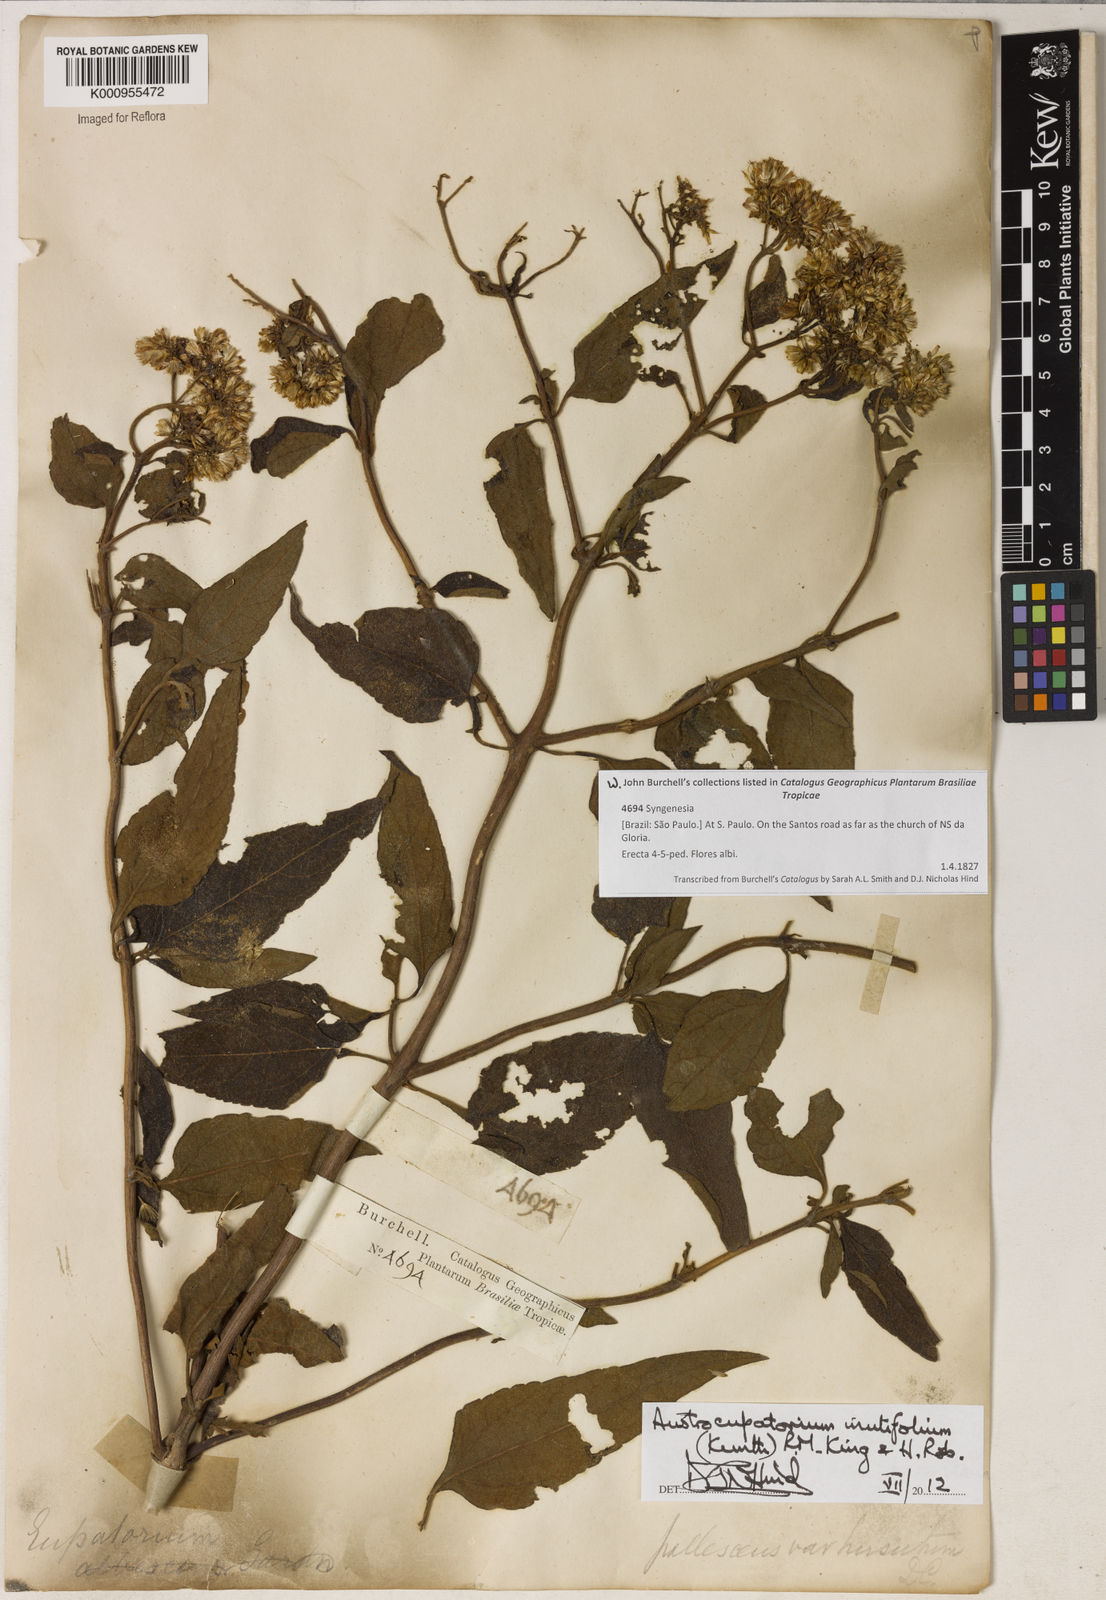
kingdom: Plantae
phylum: Tracheophyta
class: Magnoliopsida
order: Asterales
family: Asteraceae
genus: Austroeupatorium
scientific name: Austroeupatorium inulifolium
